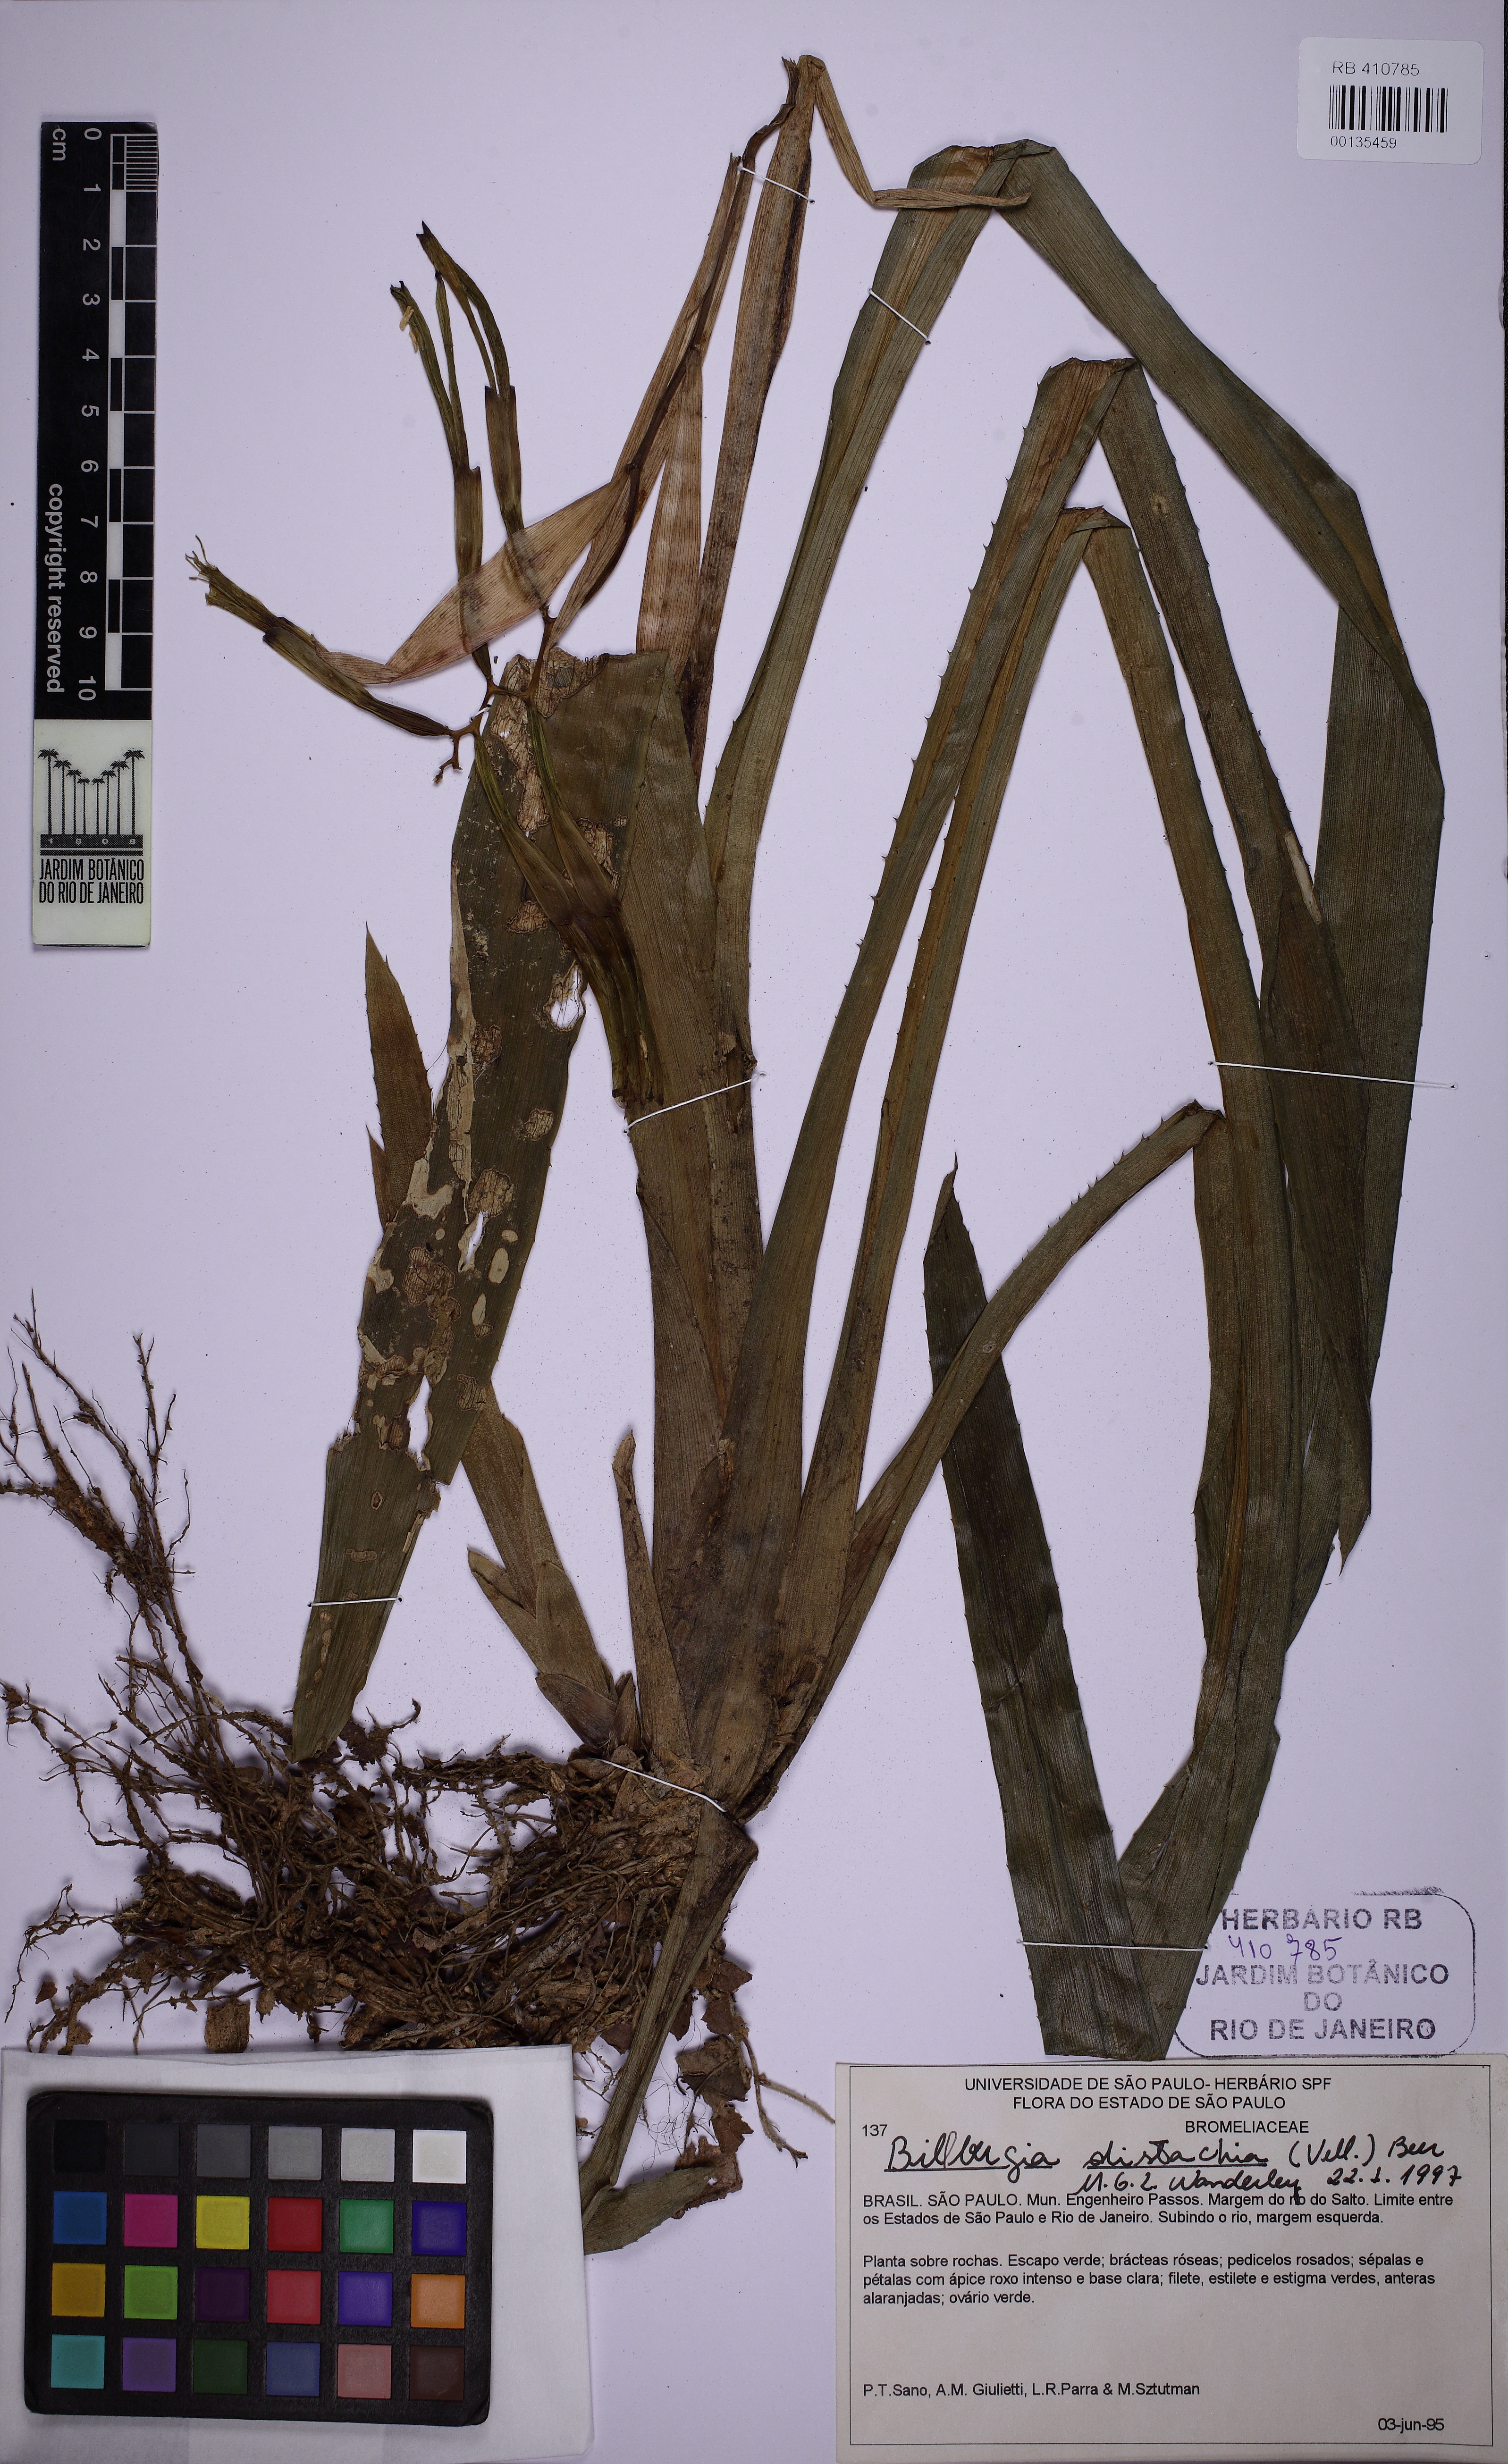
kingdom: Plantae
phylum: Tracheophyta
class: Liliopsida
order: Poales
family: Bromeliaceae
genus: Billbergia
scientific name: Billbergia distachia
